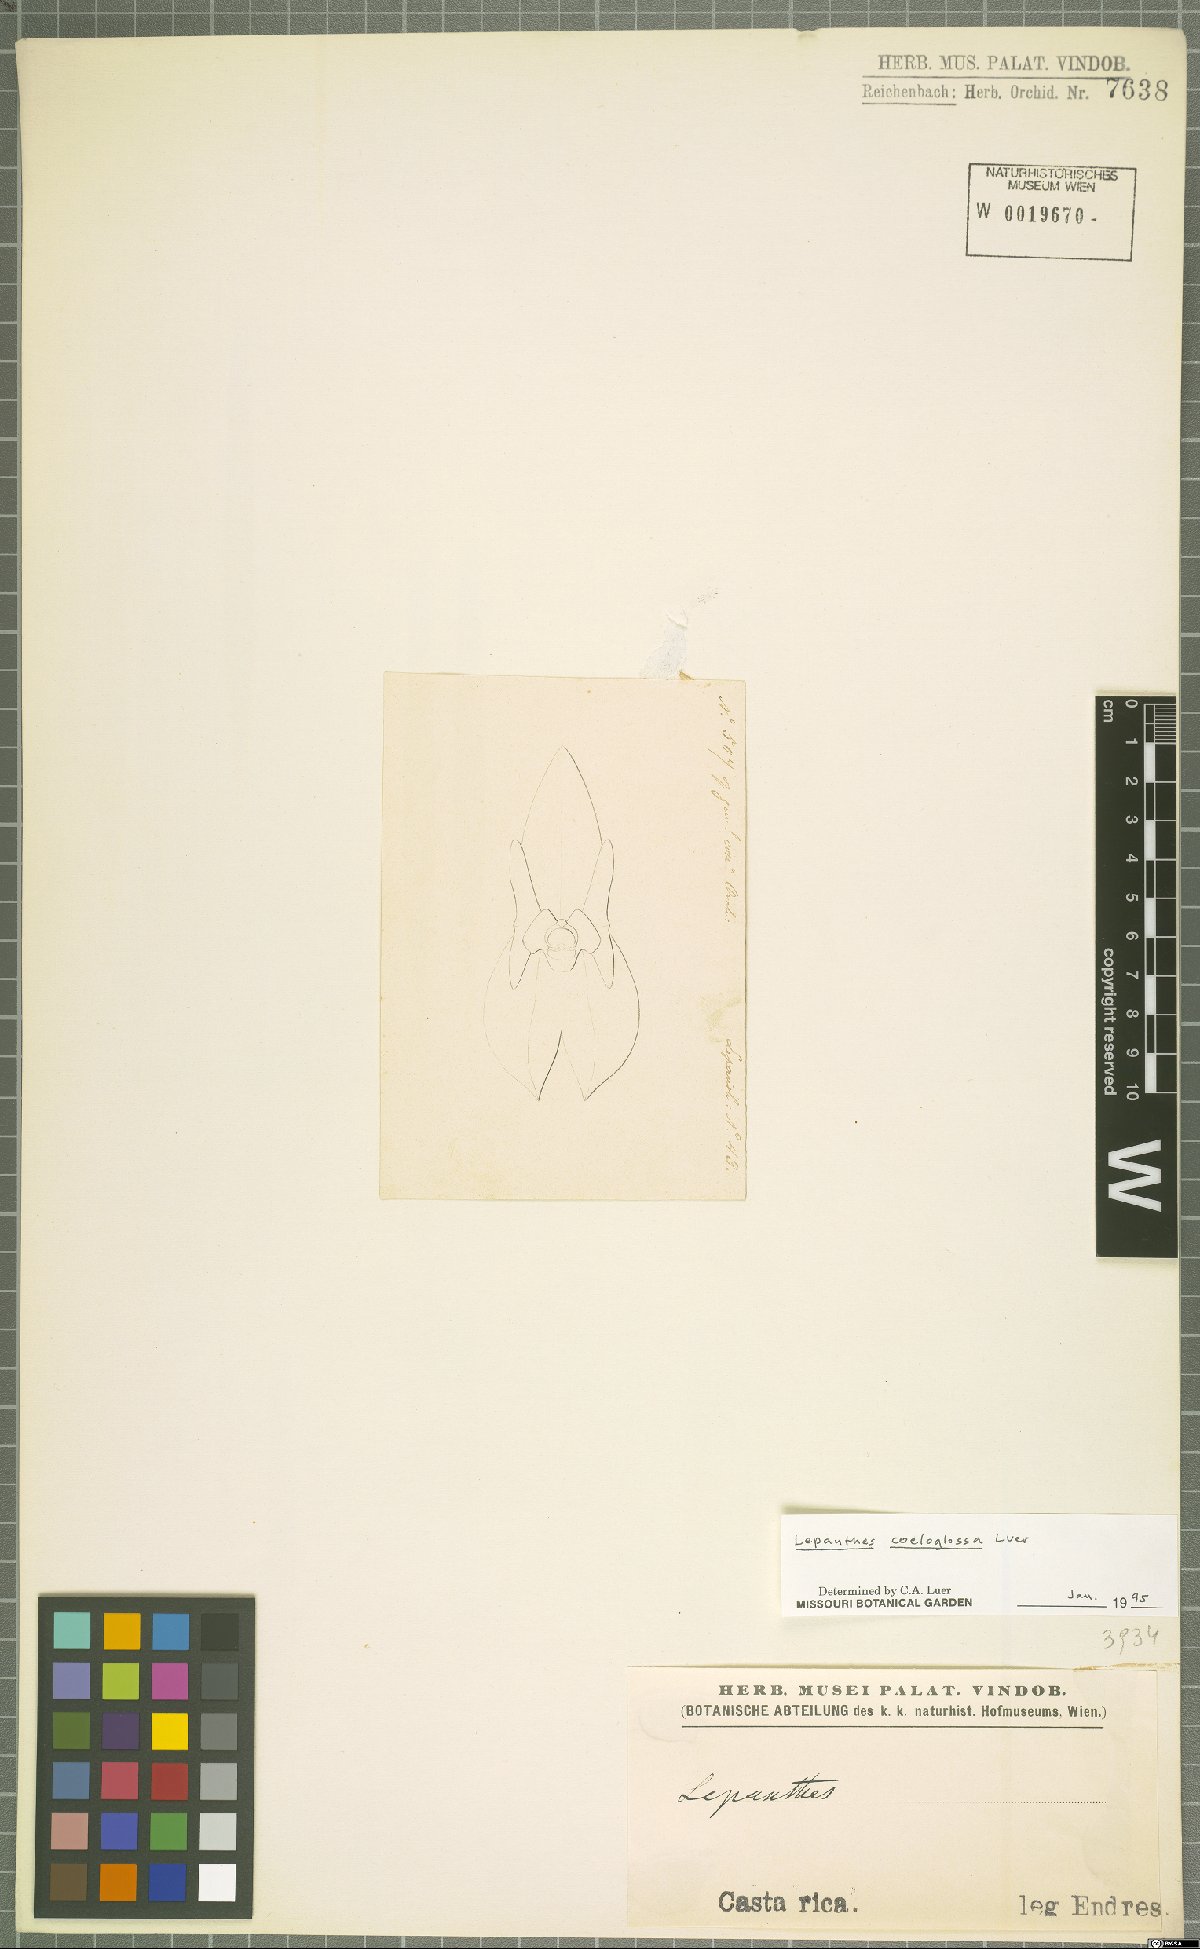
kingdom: Plantae
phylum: Tracheophyta
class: Liliopsida
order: Asparagales
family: Orchidaceae
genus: Lepanthes
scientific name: Lepanthes coeloglossa
